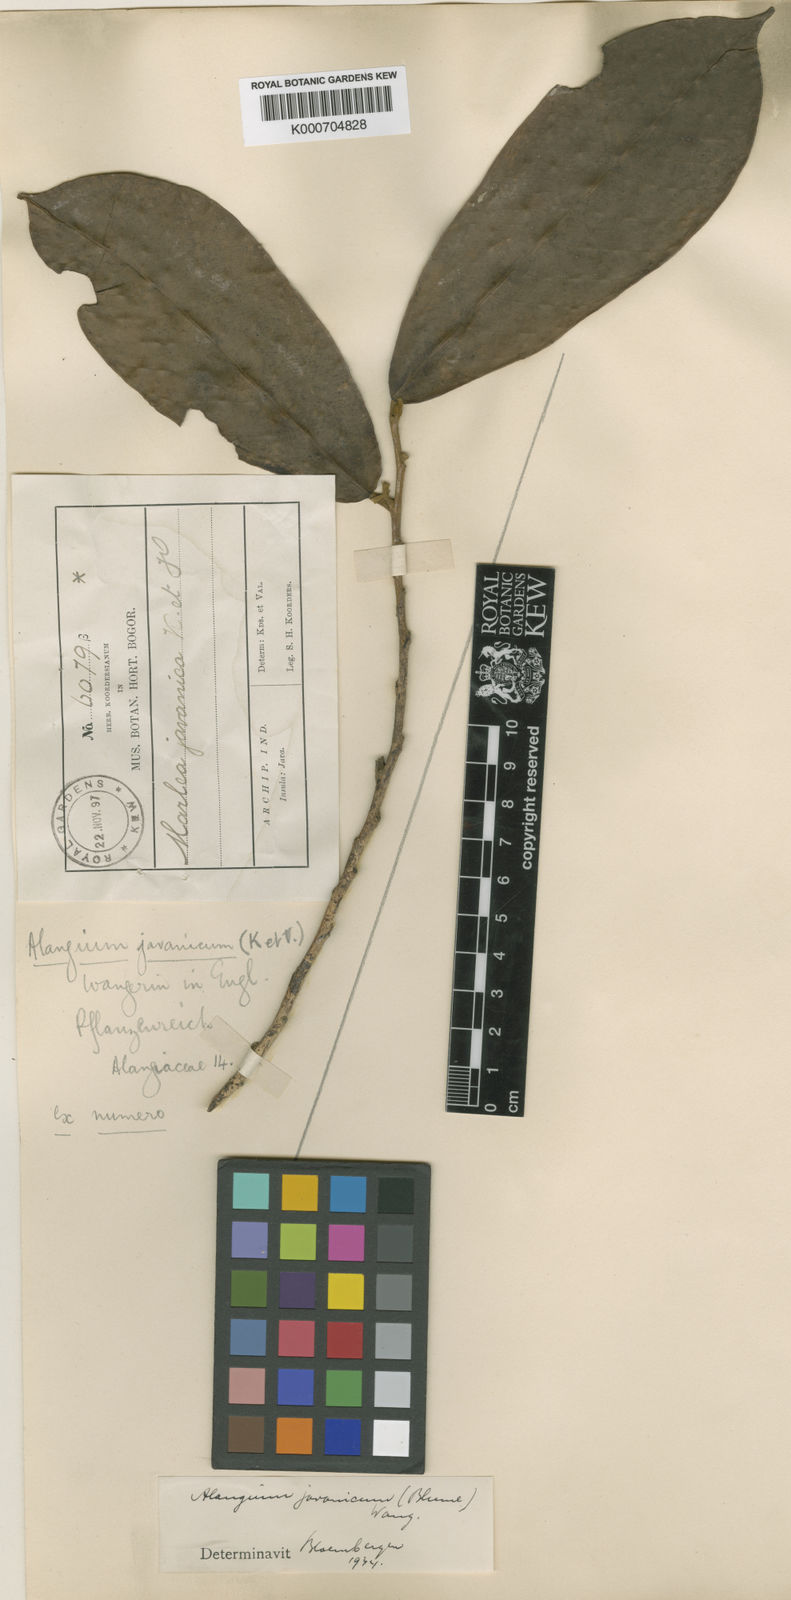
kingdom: Plantae
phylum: Tracheophyta
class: Magnoliopsida
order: Cornales
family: Cornaceae
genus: Alangium
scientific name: Alangium javanicum
